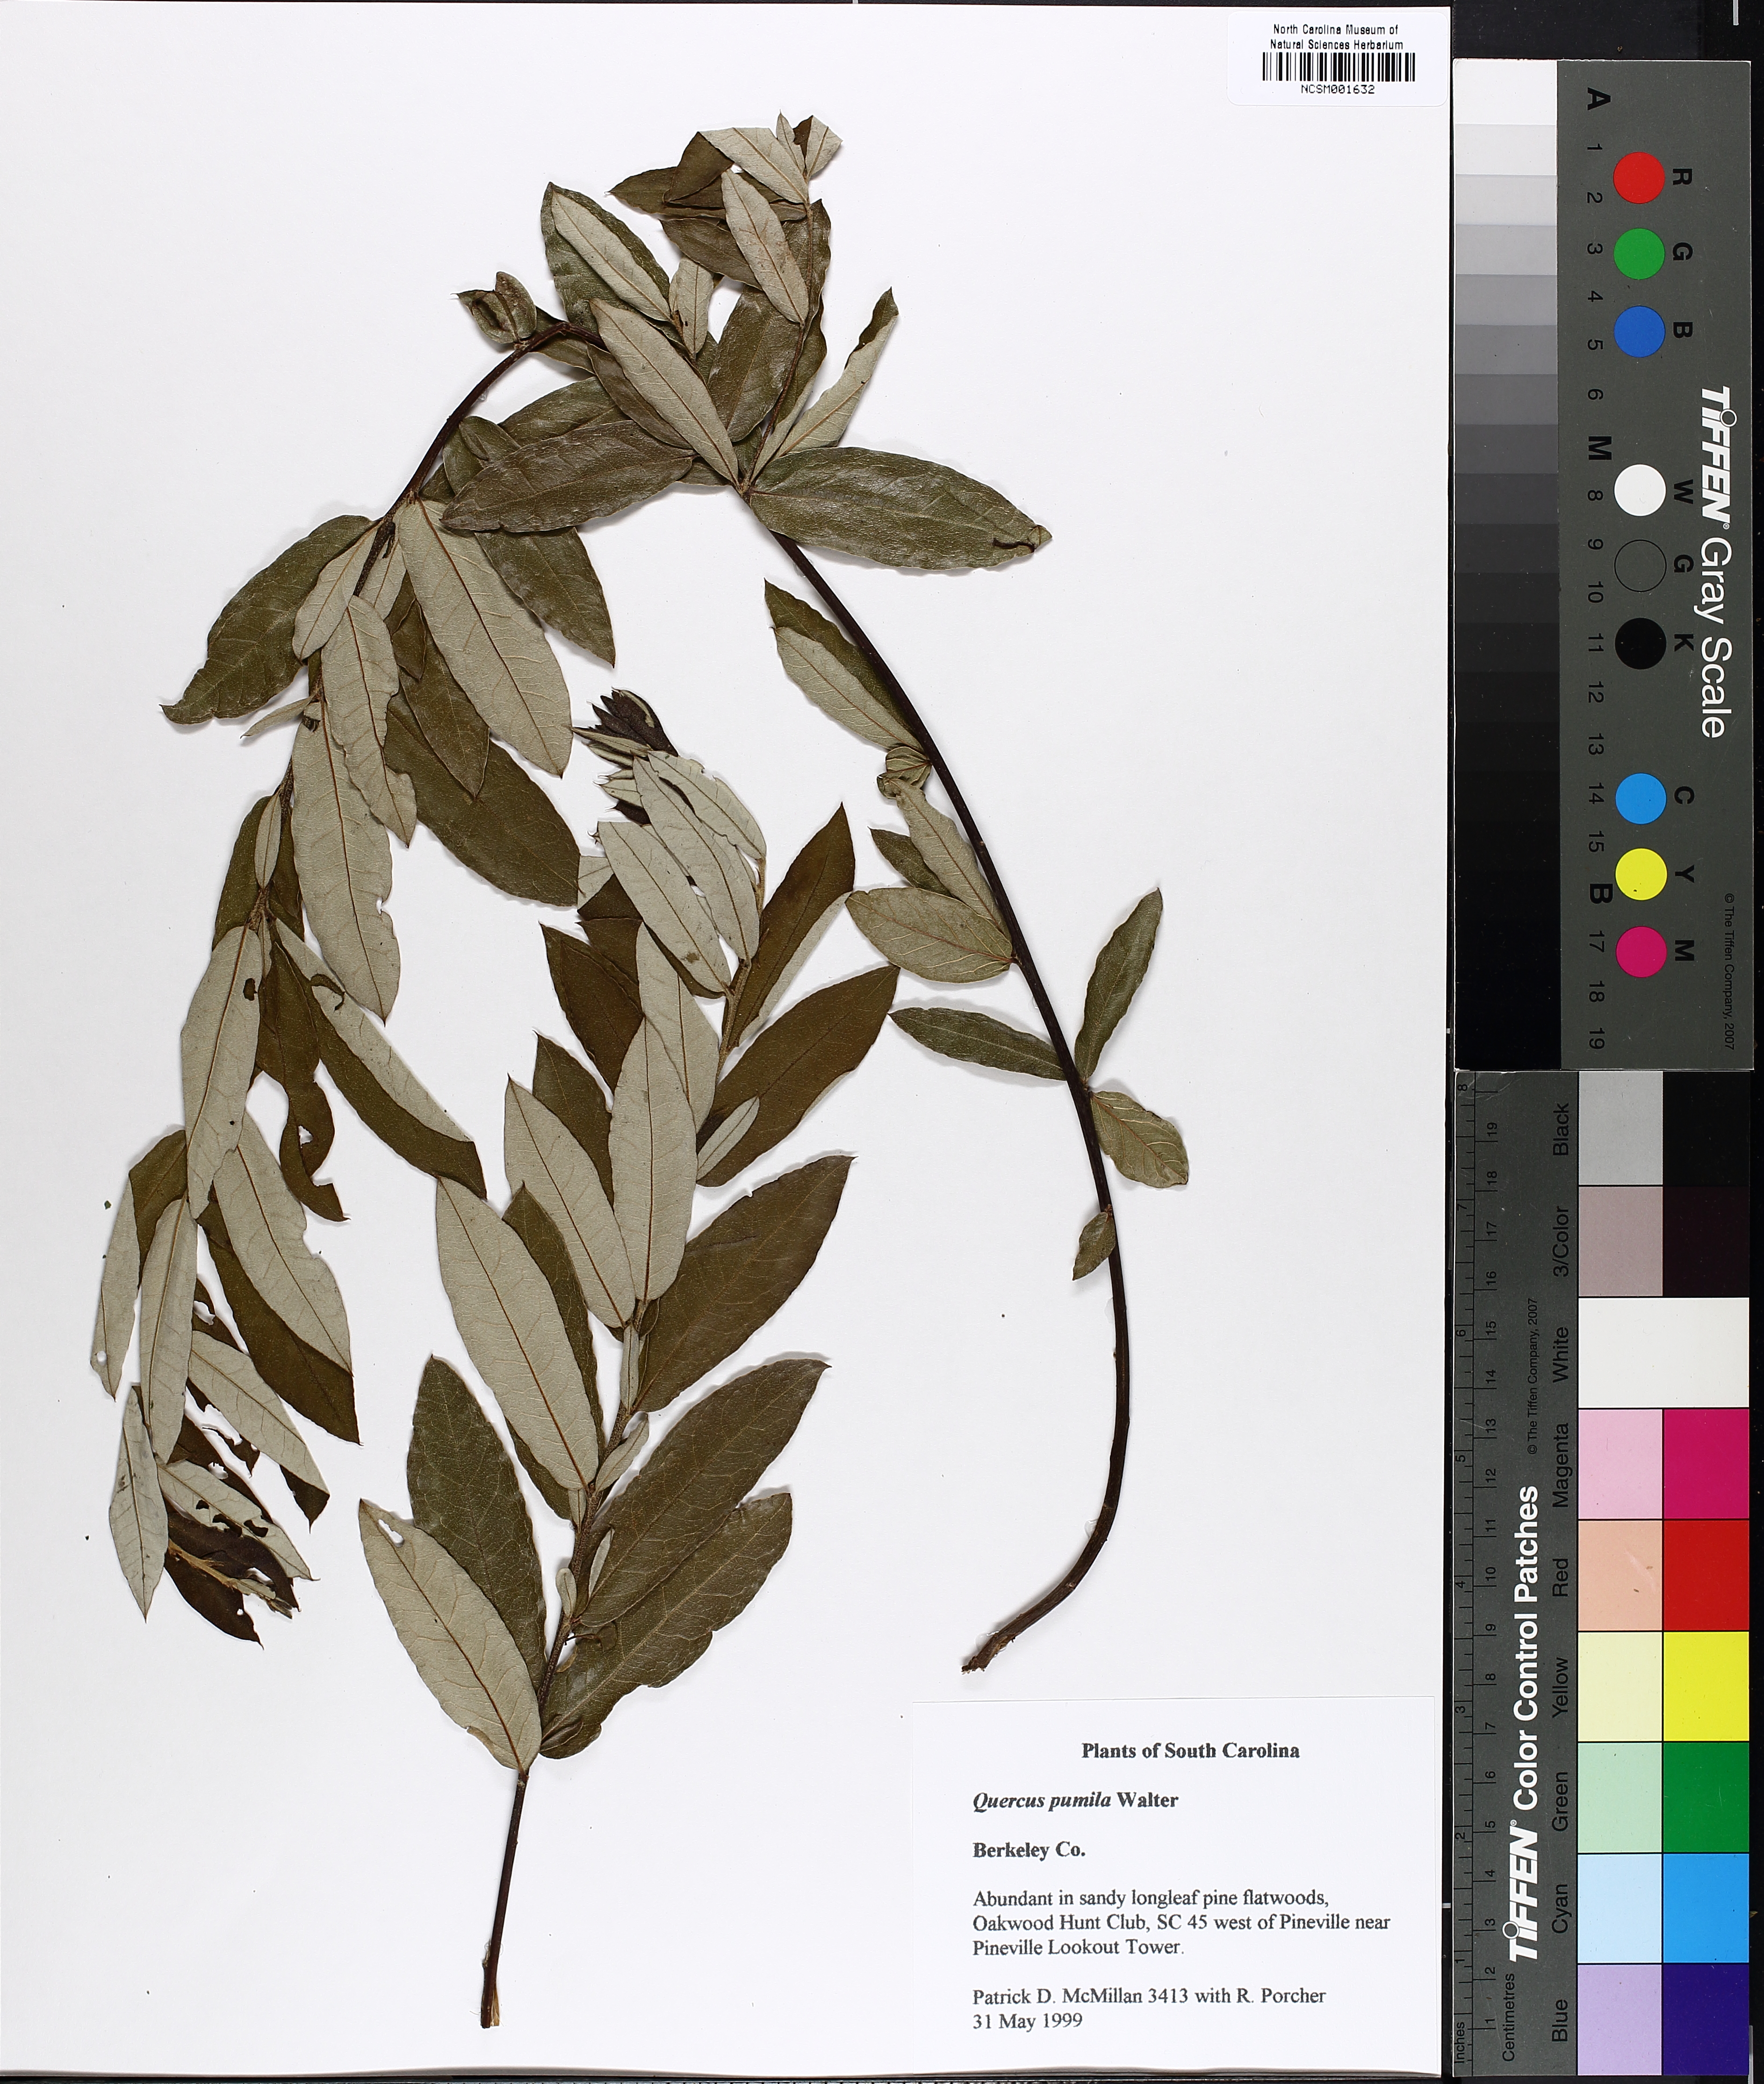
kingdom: Plantae
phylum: Tracheophyta
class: Magnoliopsida
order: Fagales
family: Fagaceae
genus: Quercus
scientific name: Quercus pumila
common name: Runner oak
